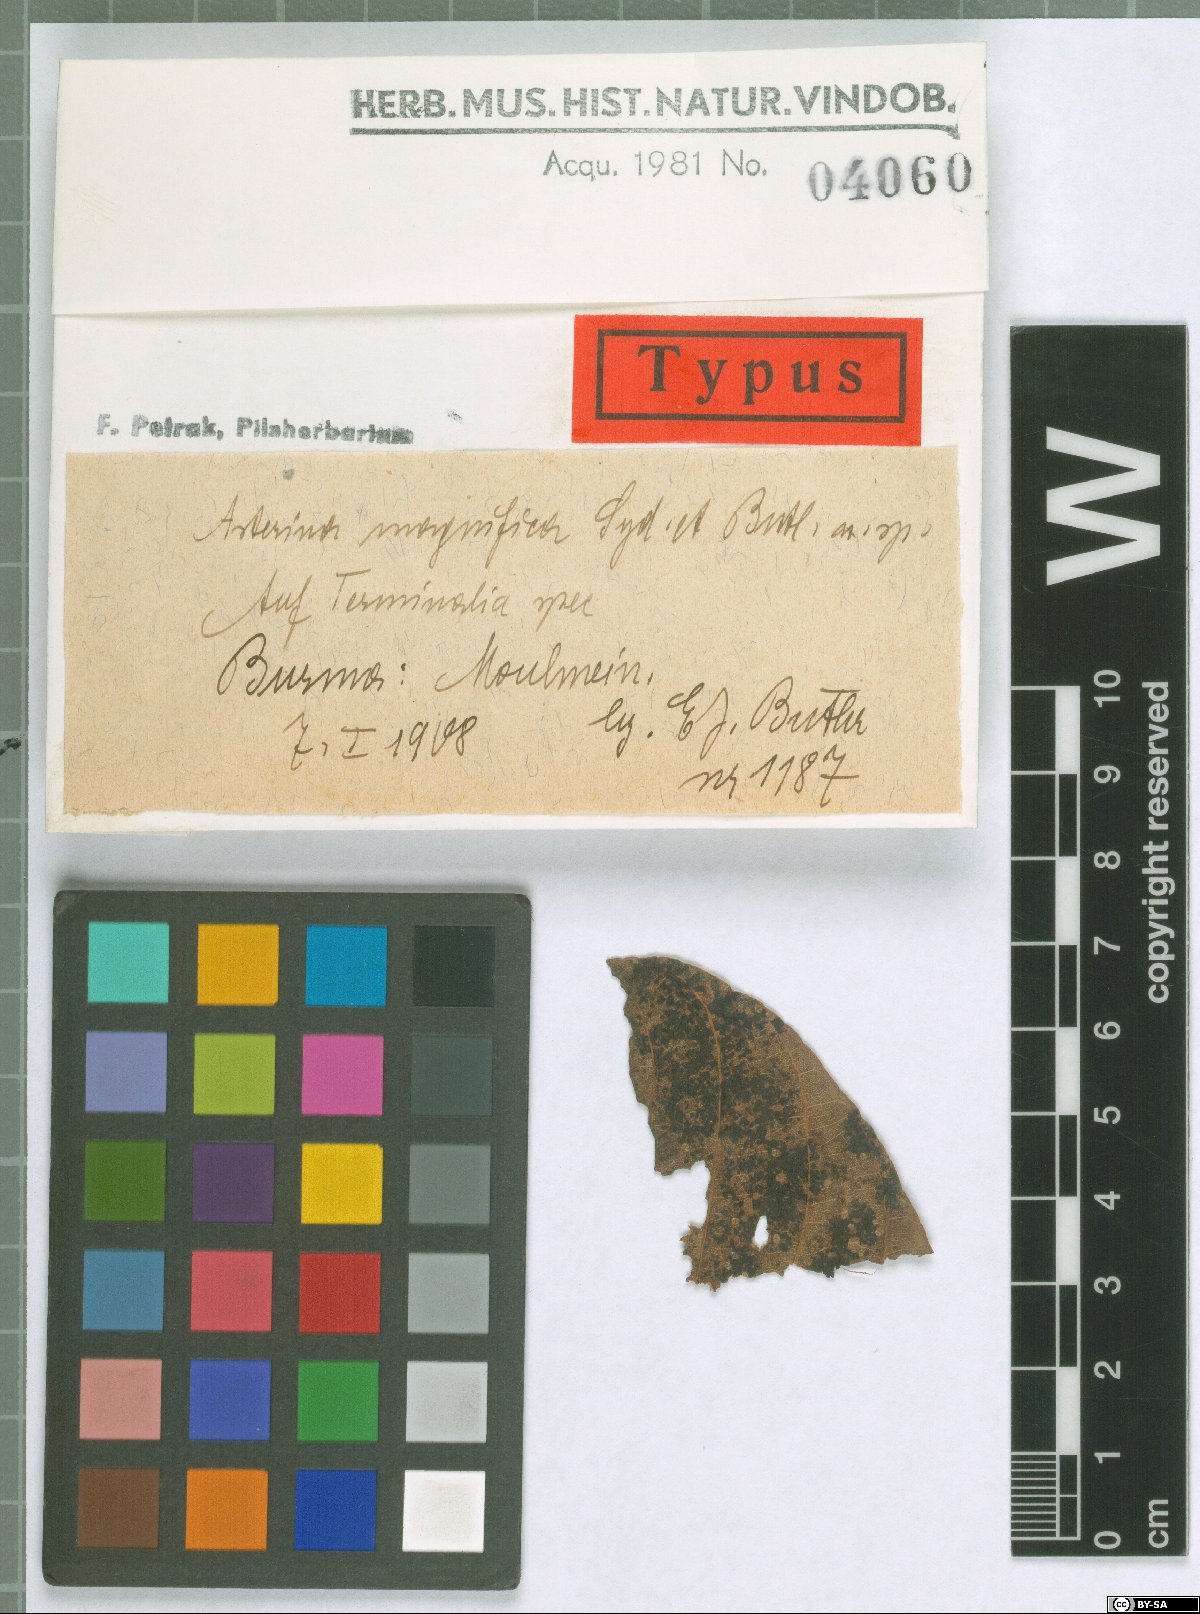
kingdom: Fungi
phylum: Ascomycota
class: Dothideomycetes
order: Asterinales
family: Asterinaceae
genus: Pycnocarpon
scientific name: Pycnocarpon magnificum
